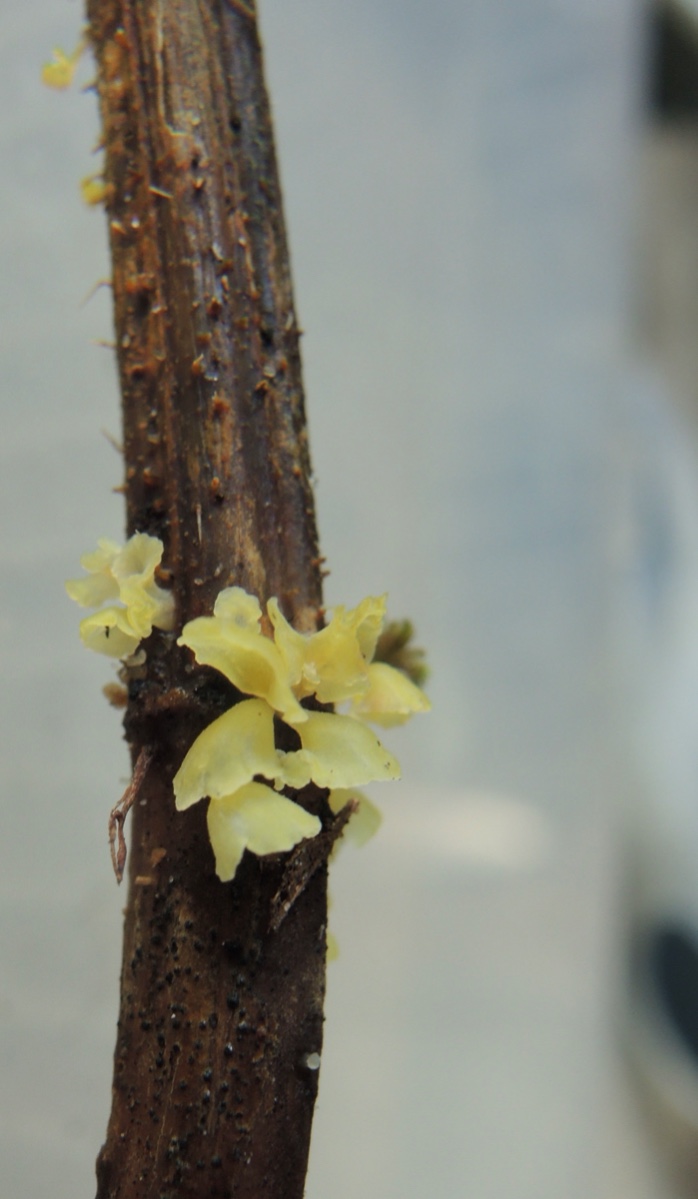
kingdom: Fungi
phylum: Basidiomycota
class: Agaricomycetes
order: Agaricales
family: Marasmiaceae
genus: Calyptella
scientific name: Calyptella campanula
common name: gul nældehue
